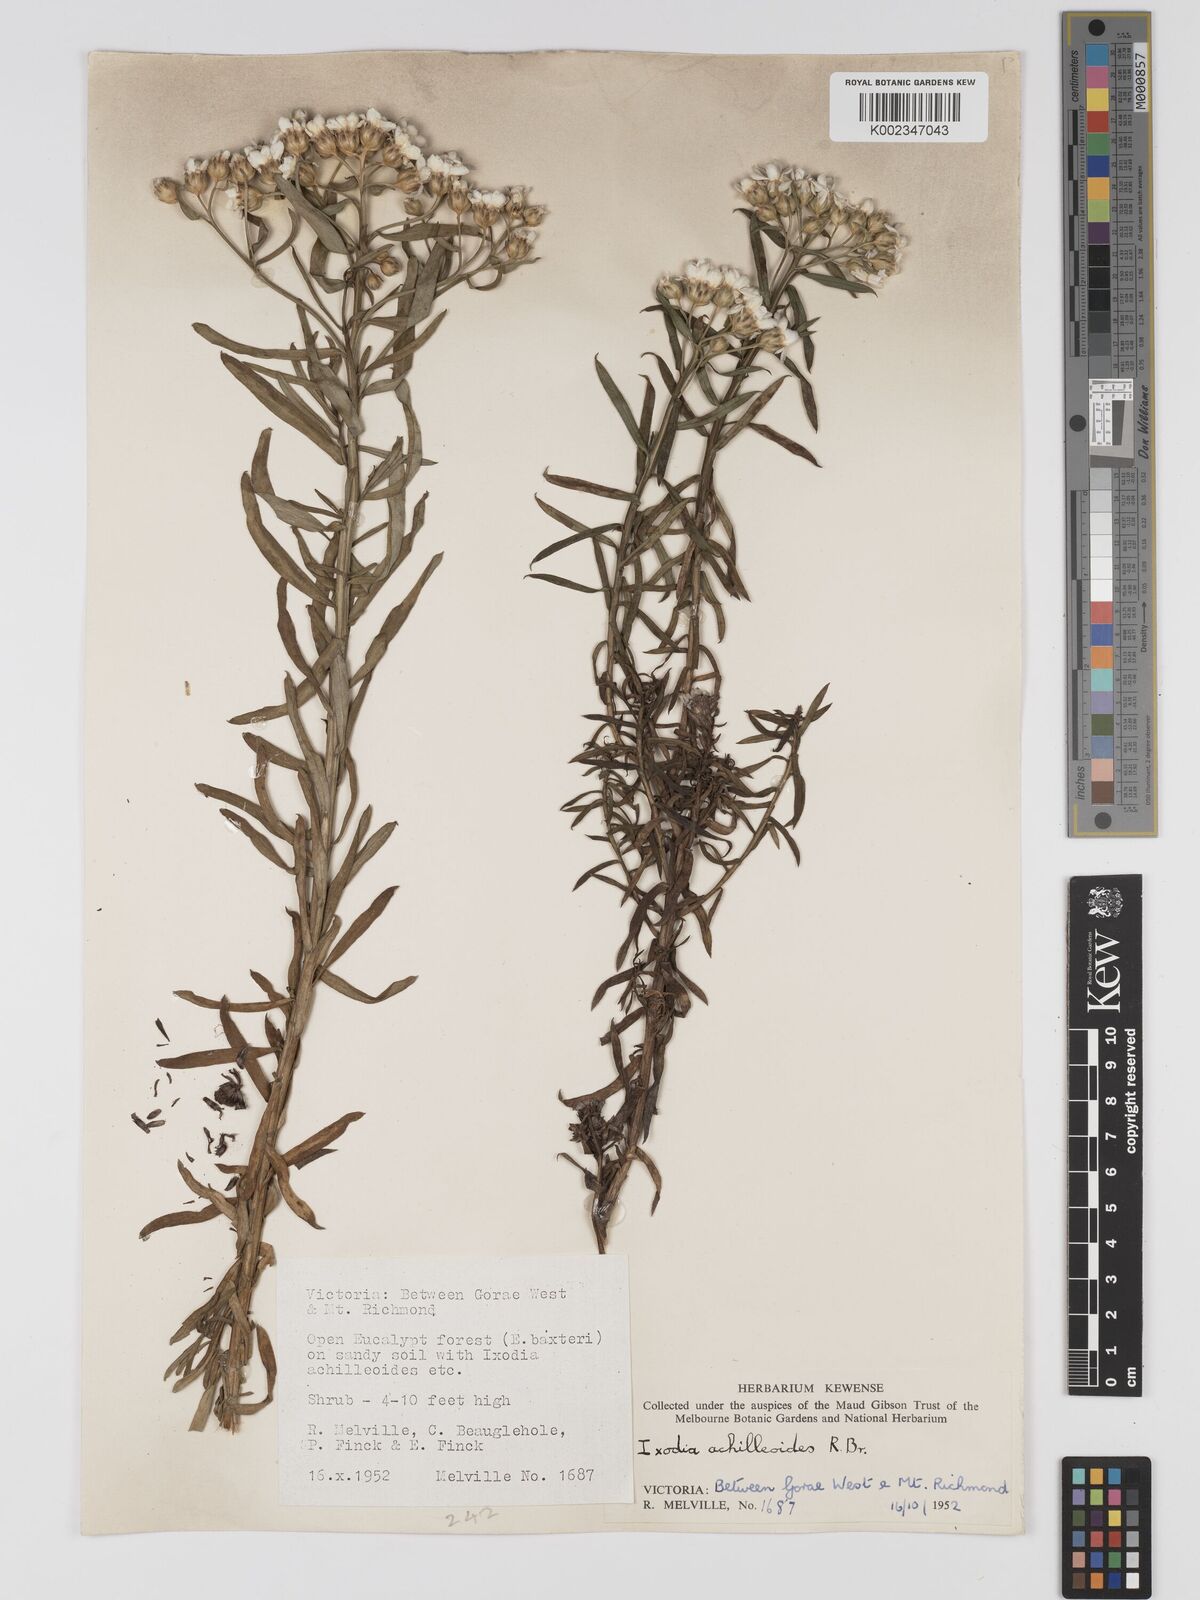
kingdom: Plantae
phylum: Tracheophyta
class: Magnoliopsida
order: Asterales
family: Asteraceae
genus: Ixodia
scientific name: Ixodia achilleoides
